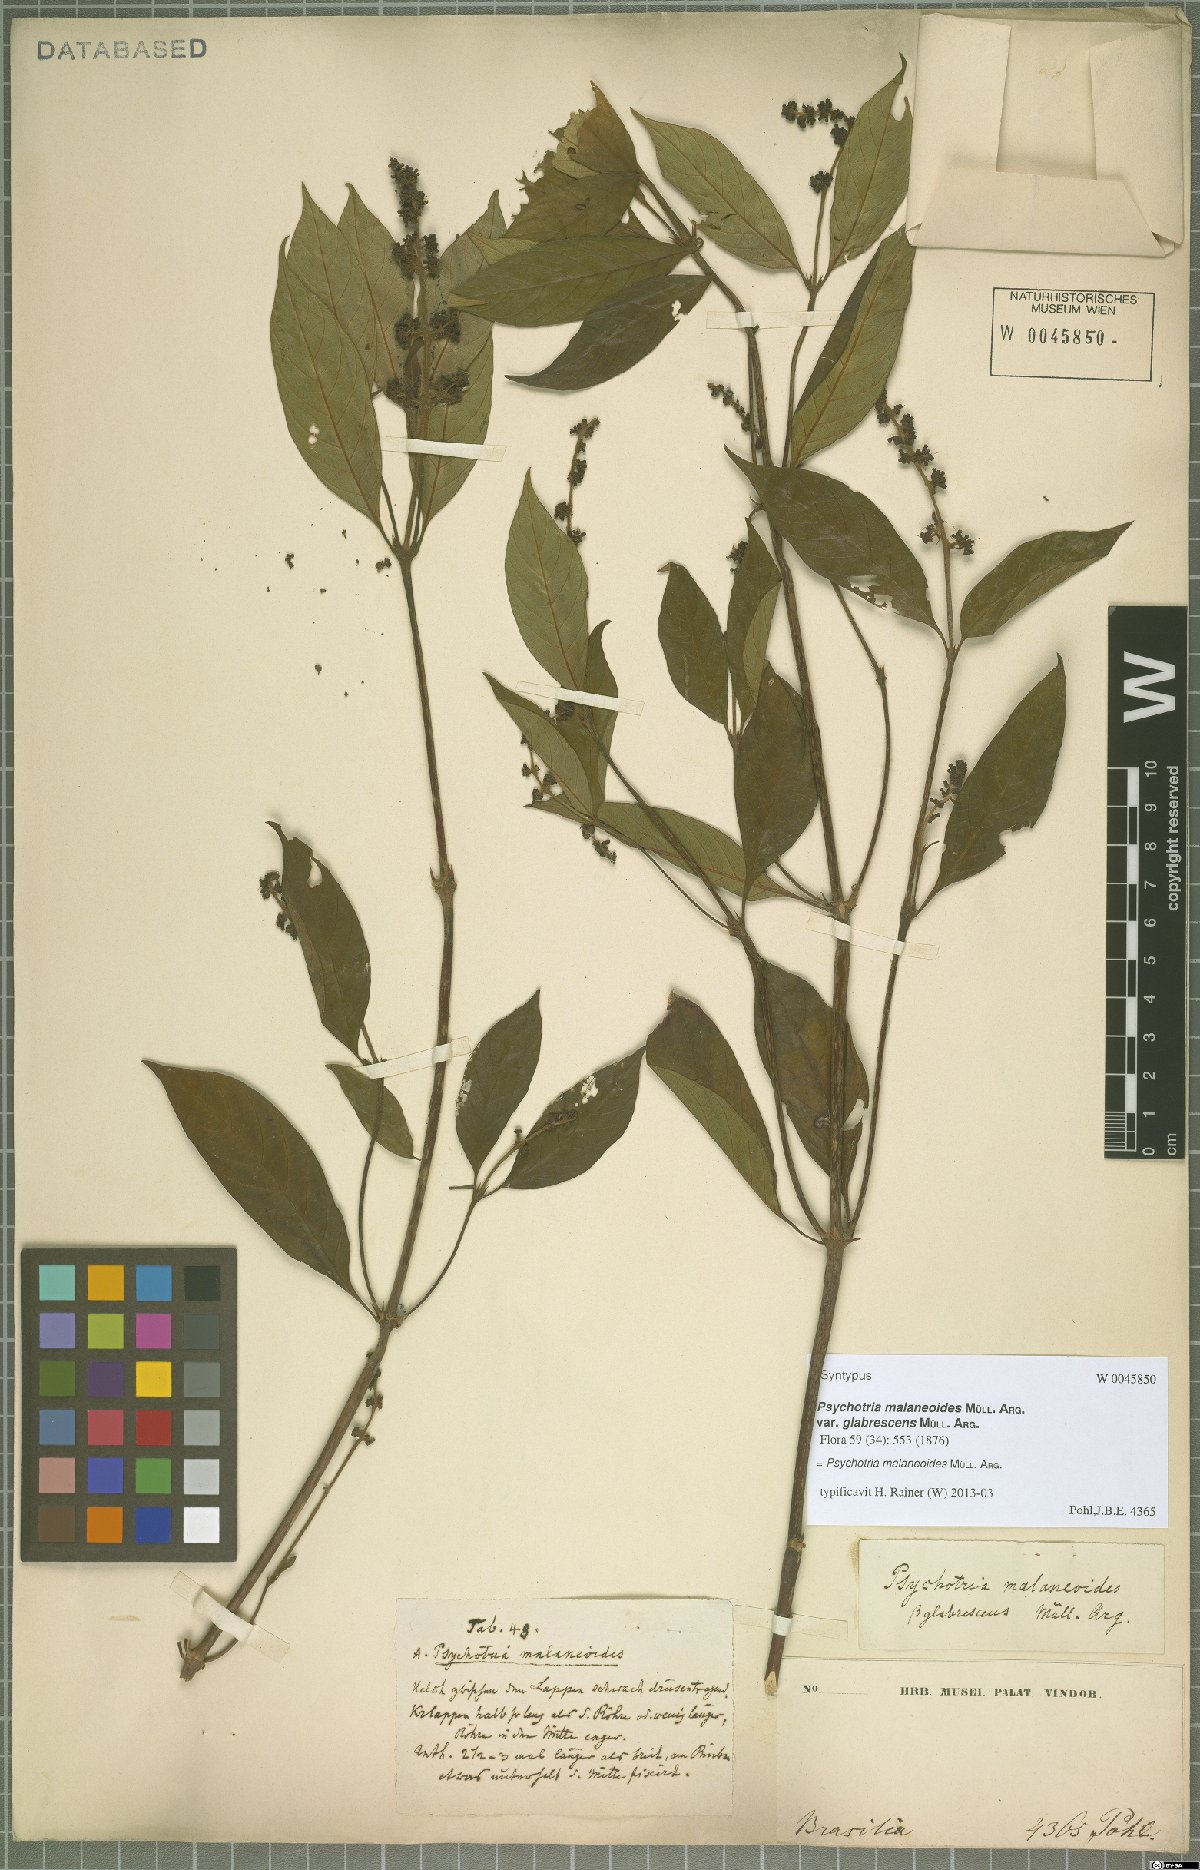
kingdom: Plantae
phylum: Tracheophyta
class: Magnoliopsida
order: Gentianales
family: Rubiaceae
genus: Palicourea
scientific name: Palicourea malaneoides
